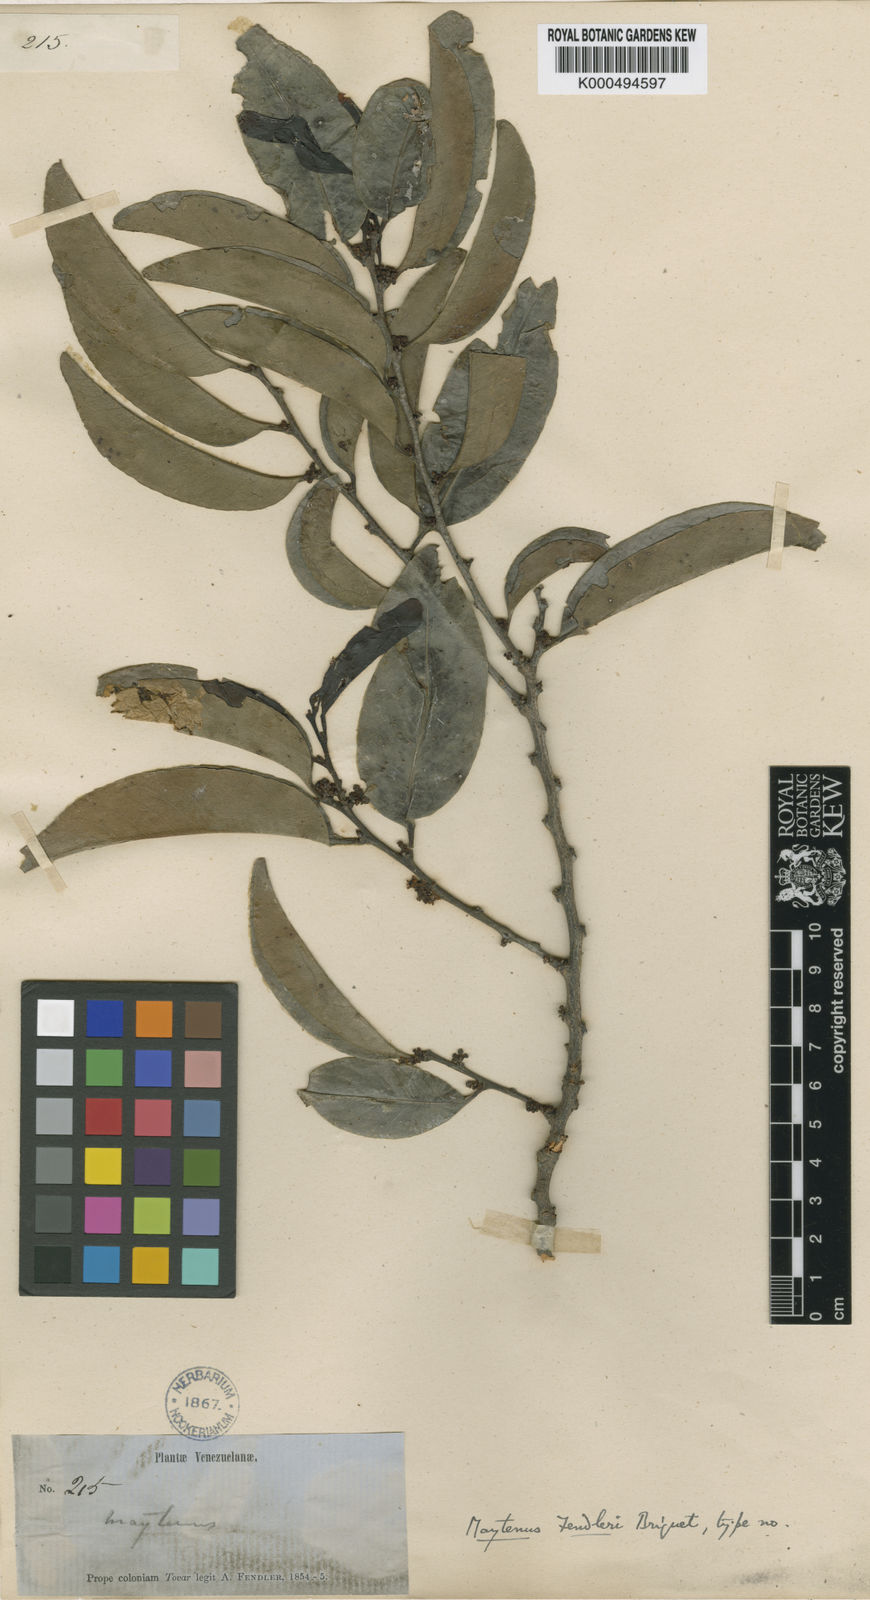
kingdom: Plantae
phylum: Tracheophyta
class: Magnoliopsida
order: Celastrales
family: Celastraceae
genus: Maytenus
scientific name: Maytenus fendleri
